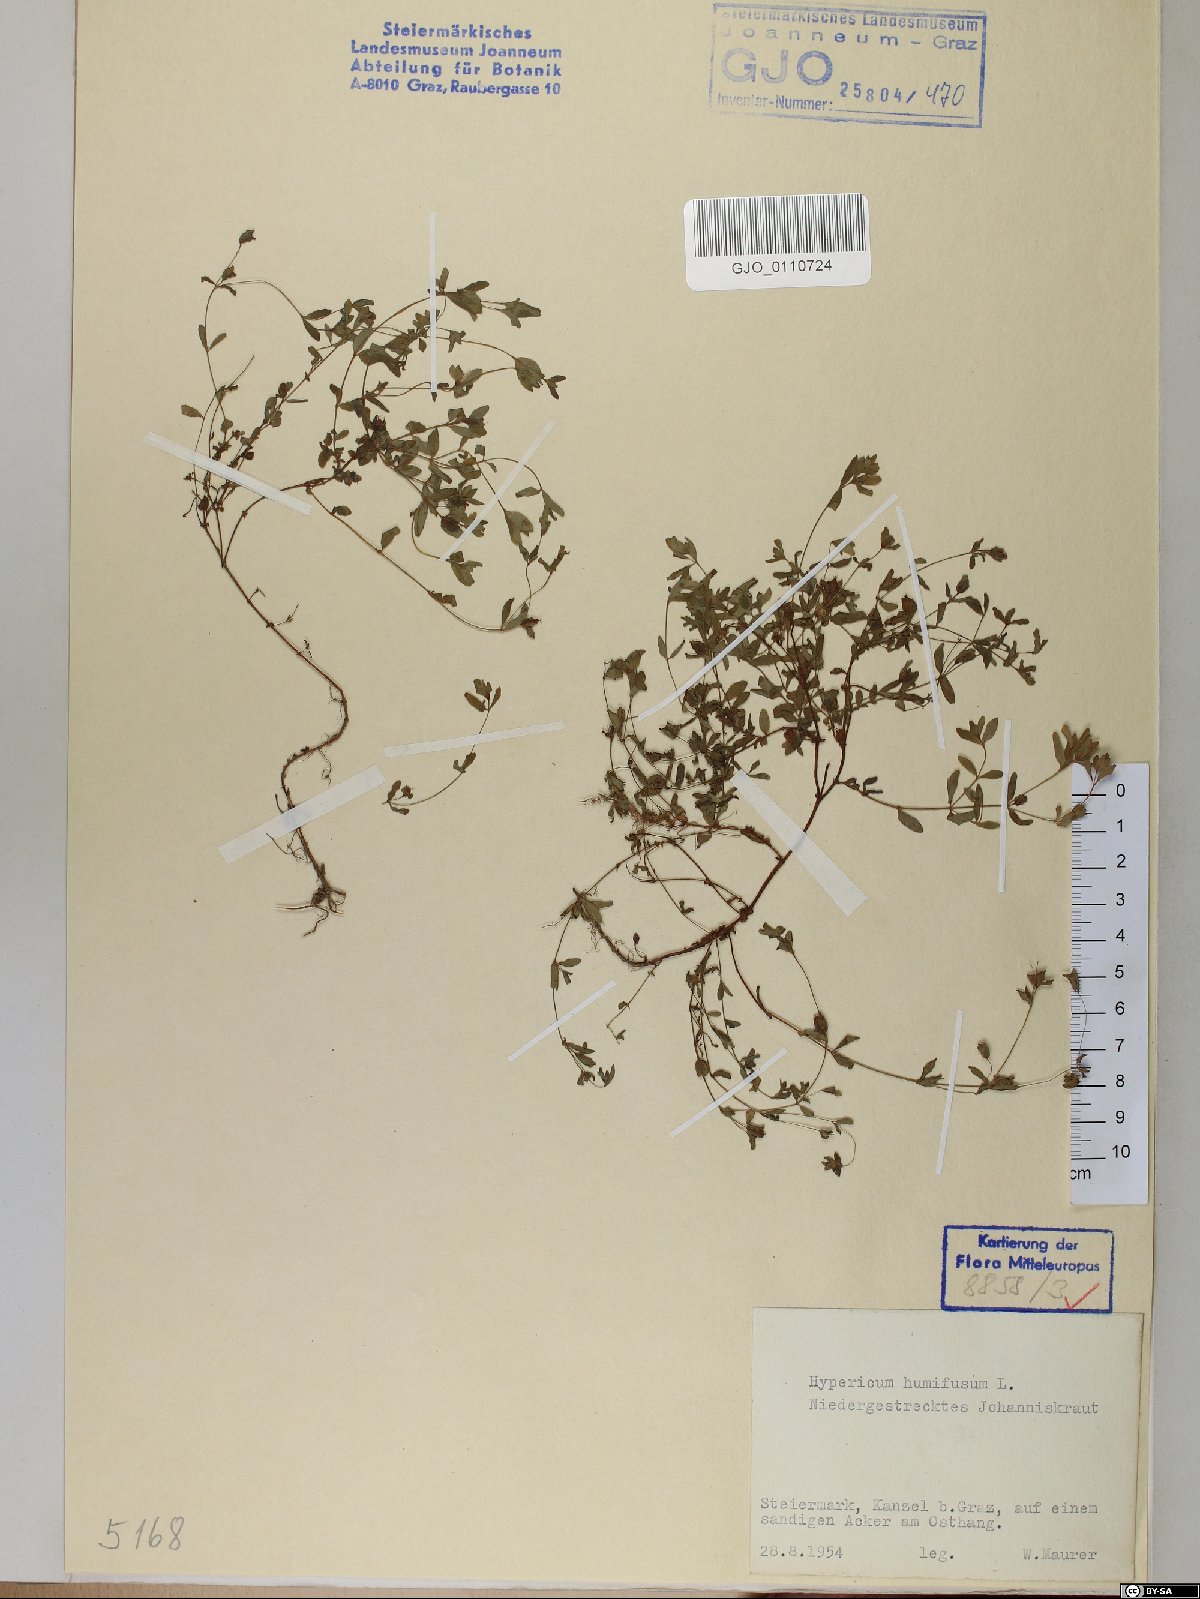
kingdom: Plantae
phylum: Tracheophyta
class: Magnoliopsida
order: Malpighiales
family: Hypericaceae
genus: Hypericum
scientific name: Hypericum humifusum
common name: Trailing st. john's-wort
